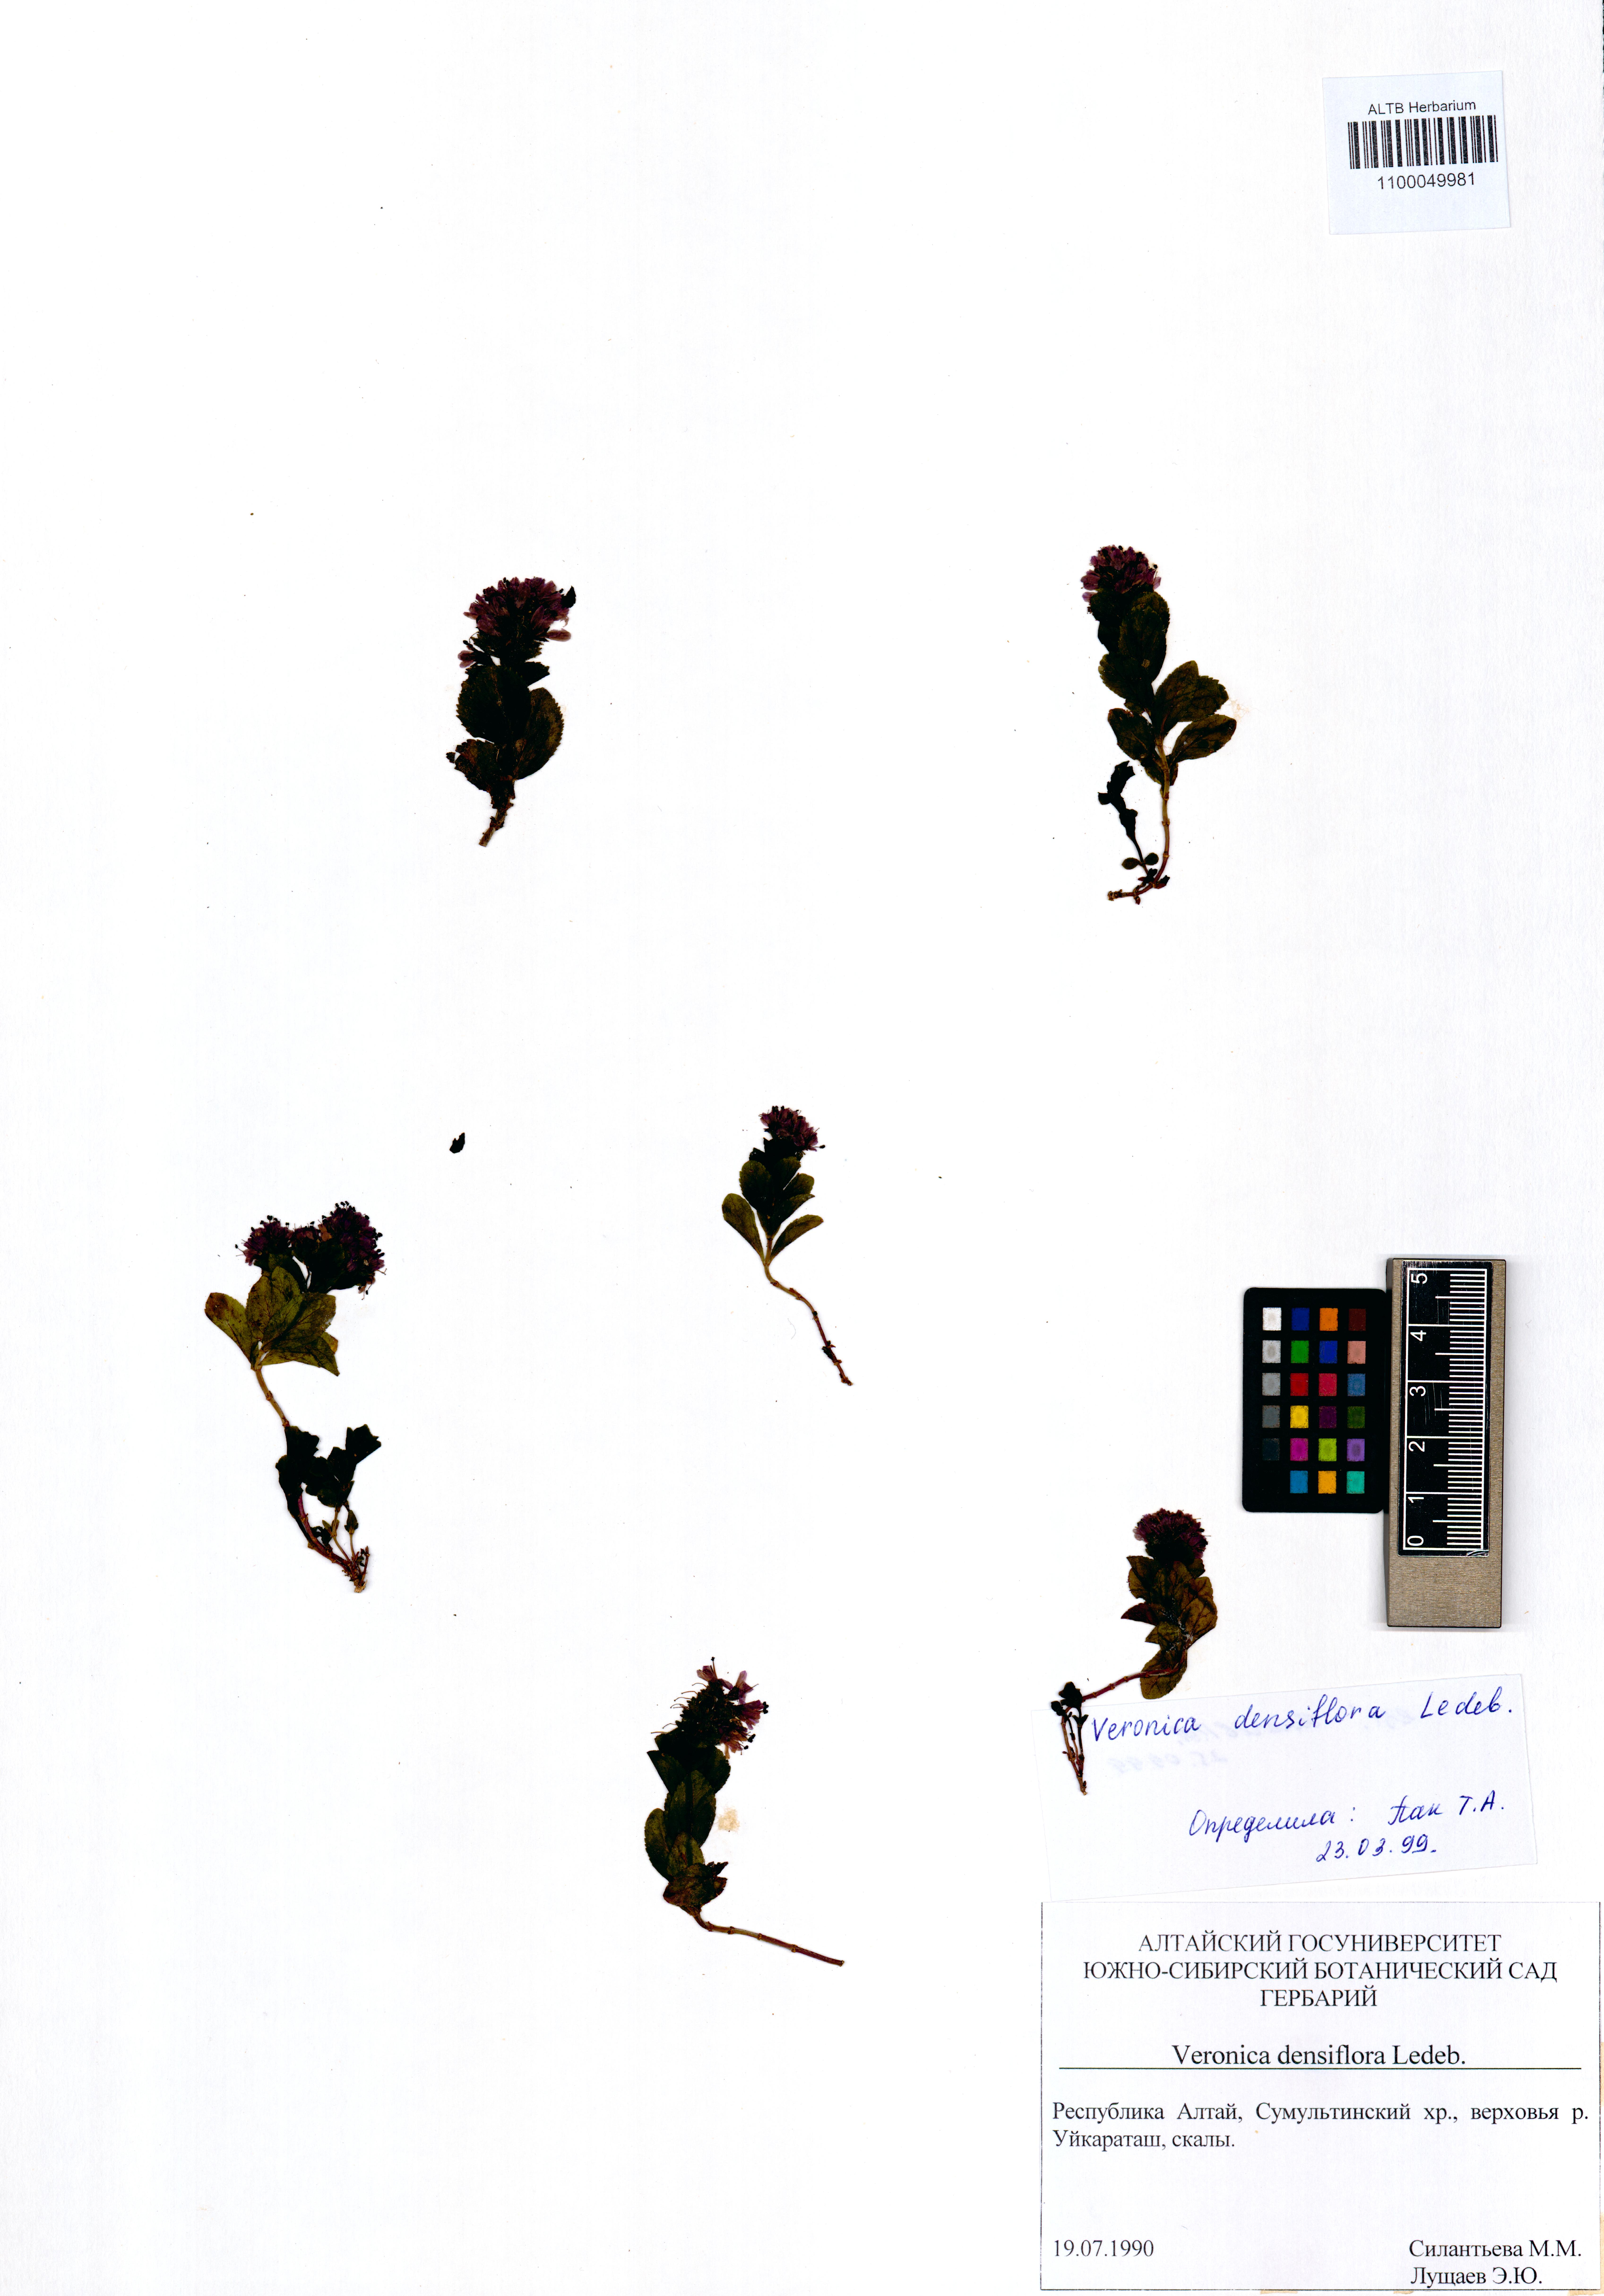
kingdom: Plantae
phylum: Tracheophyta
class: Magnoliopsida
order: Lamiales
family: Plantaginaceae
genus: Veronica
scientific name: Veronica densiflora
